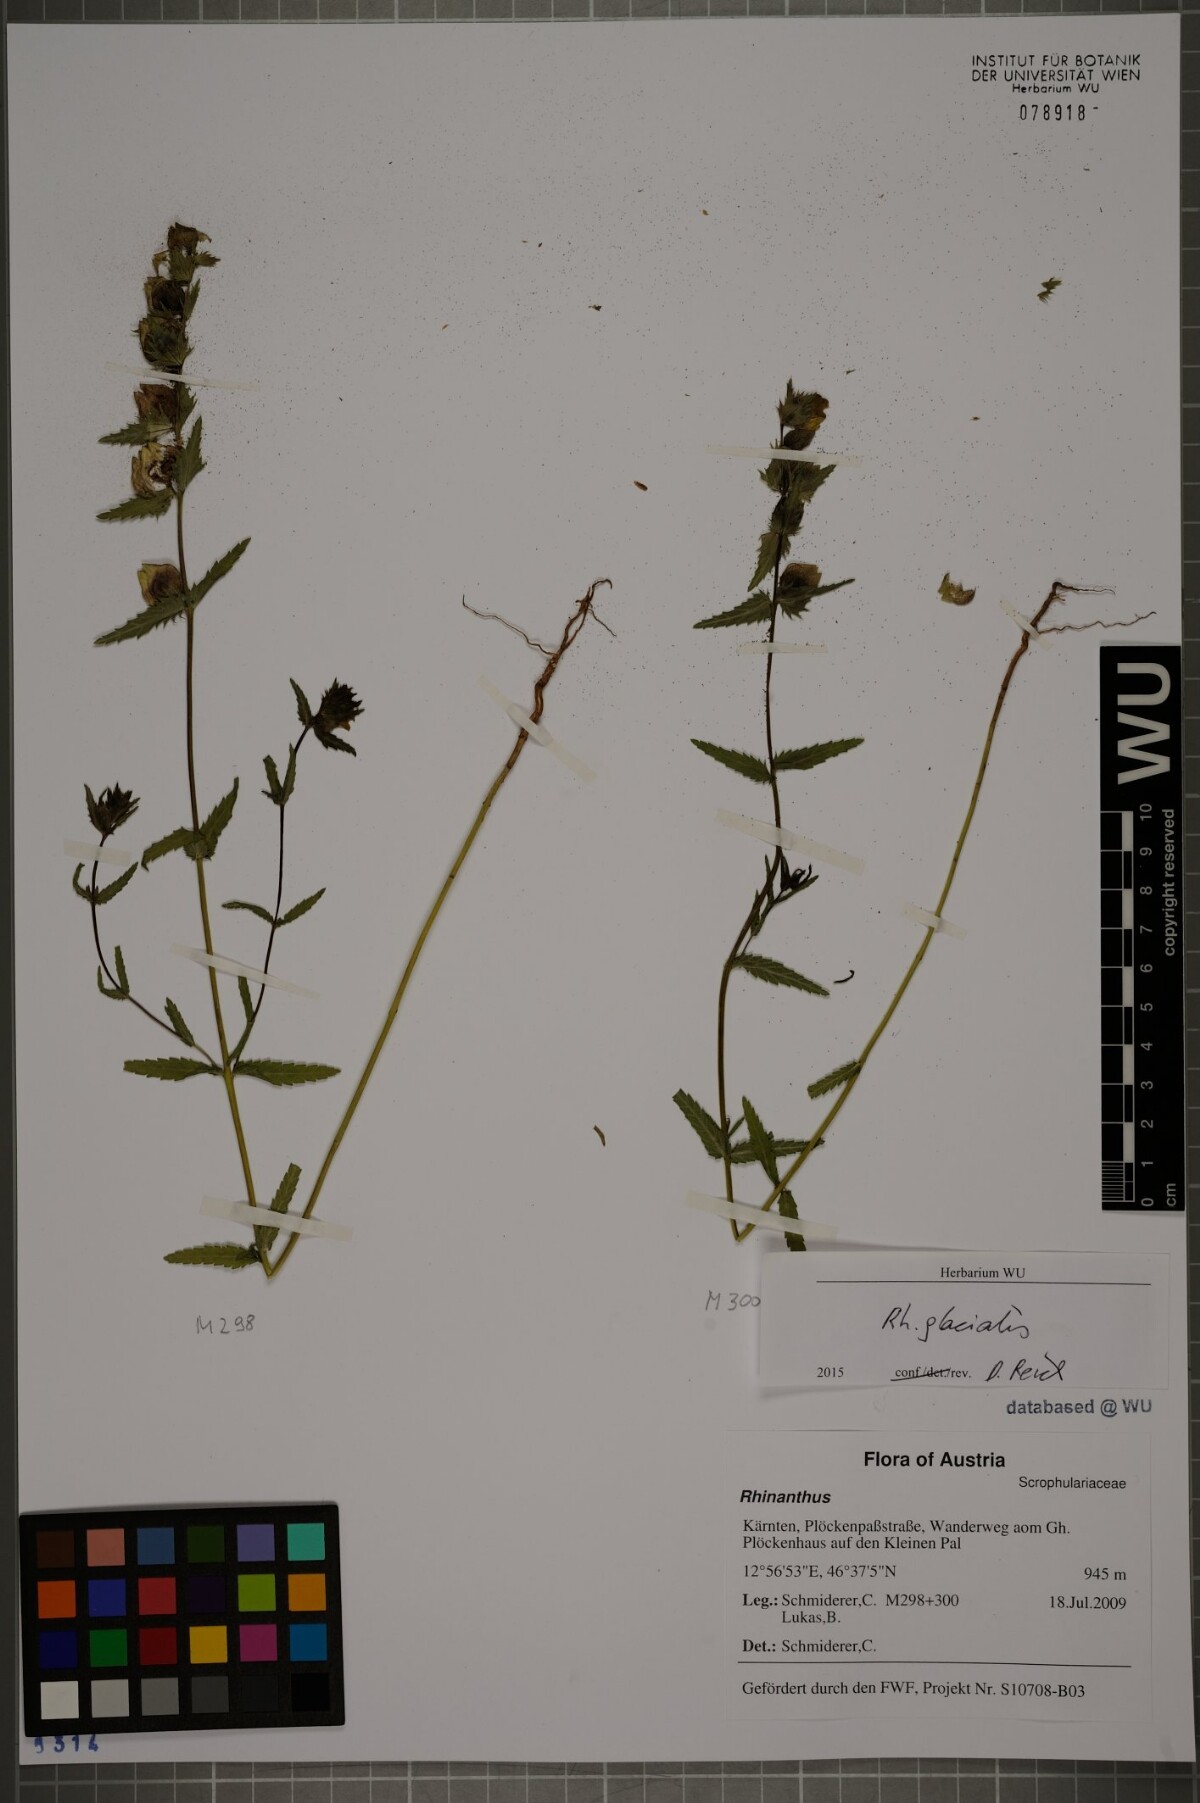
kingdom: Plantae
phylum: Tracheophyta
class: Magnoliopsida
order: Lamiales
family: Orobanchaceae
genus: Rhinanthus
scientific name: Rhinanthus glacialis
